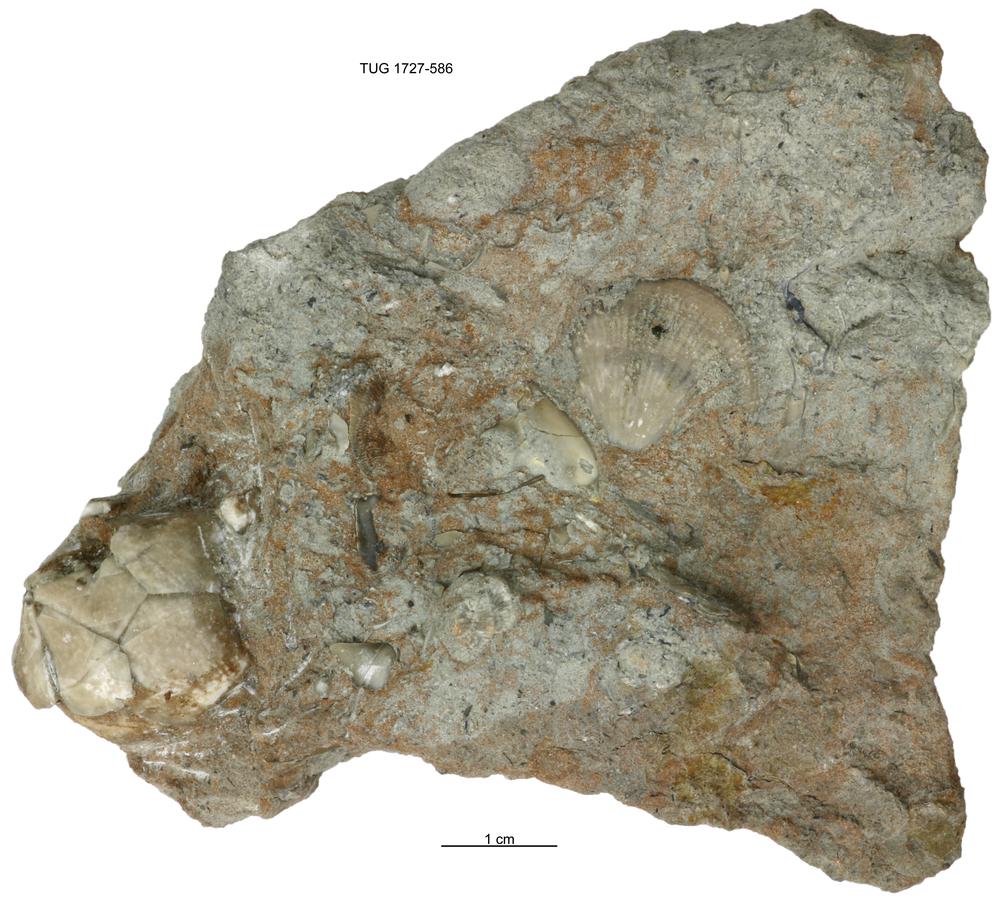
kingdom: Animalia
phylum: Echinodermata
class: Crinoidea
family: Hybocrinidae
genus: Hoplocrinus
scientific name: Hoplocrinus
